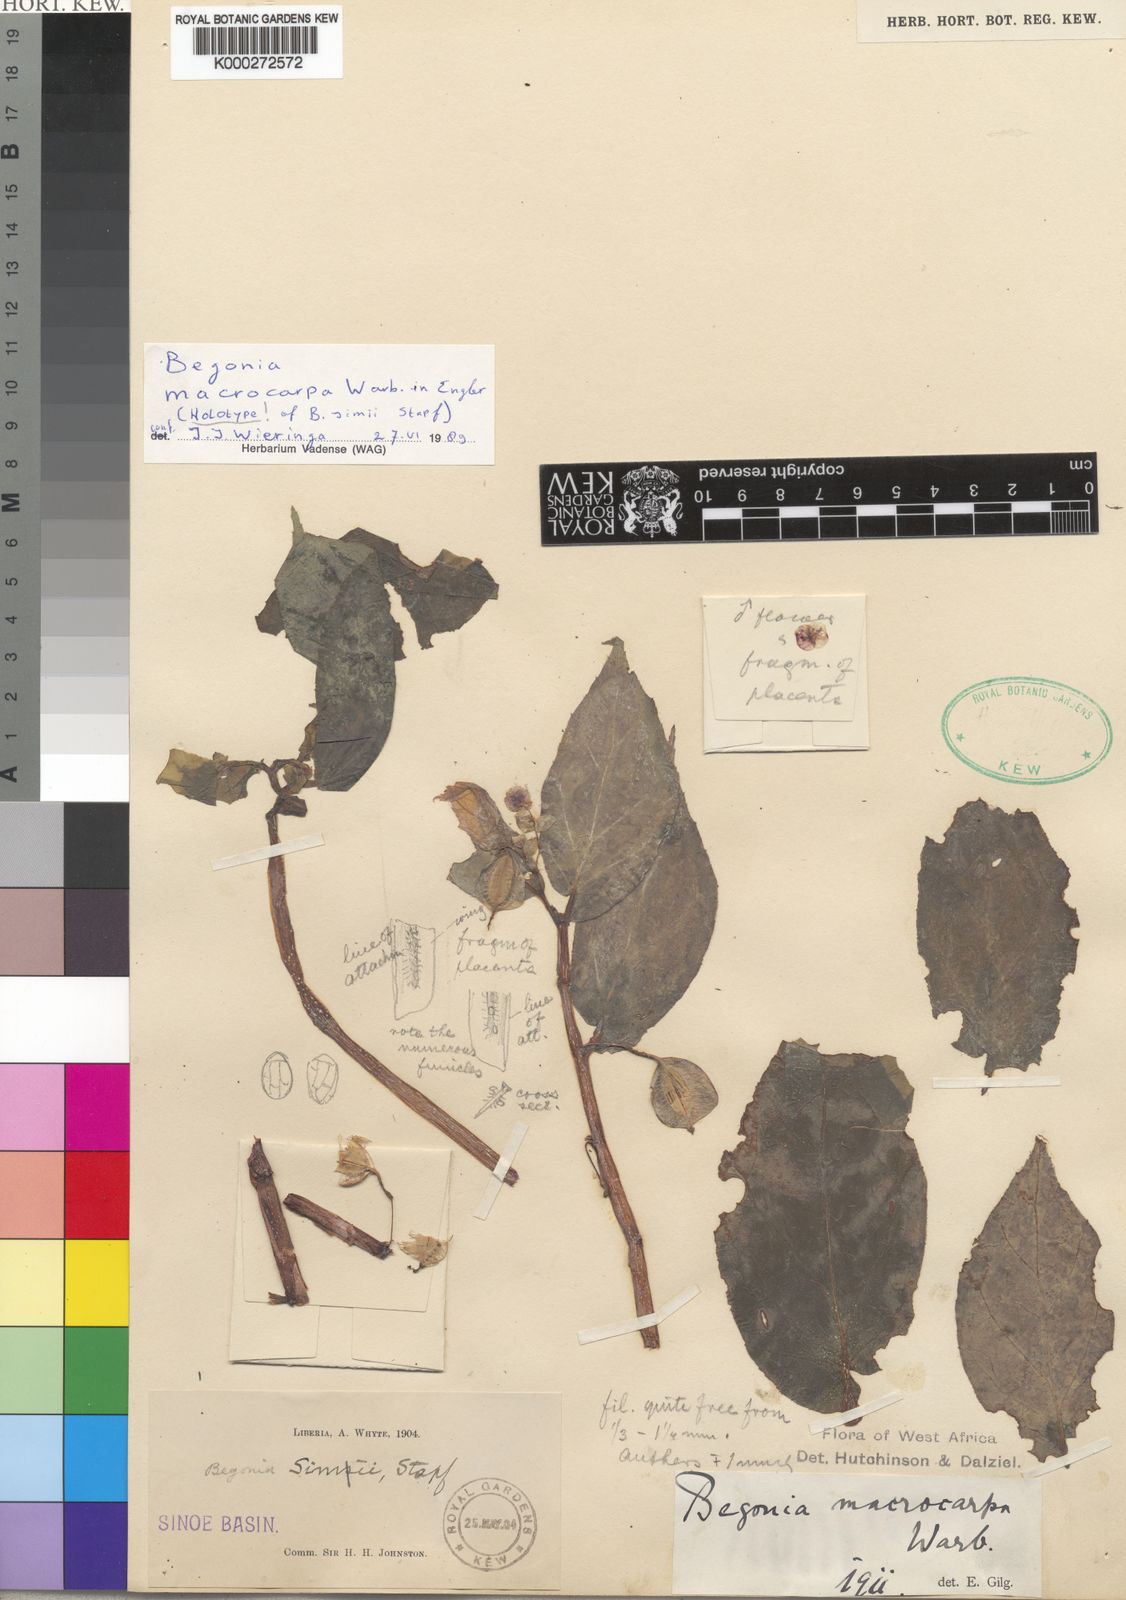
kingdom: Plantae
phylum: Tracheophyta
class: Magnoliopsida
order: Cucurbitales
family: Begoniaceae
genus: Begonia
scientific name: Begonia macrocarpa
